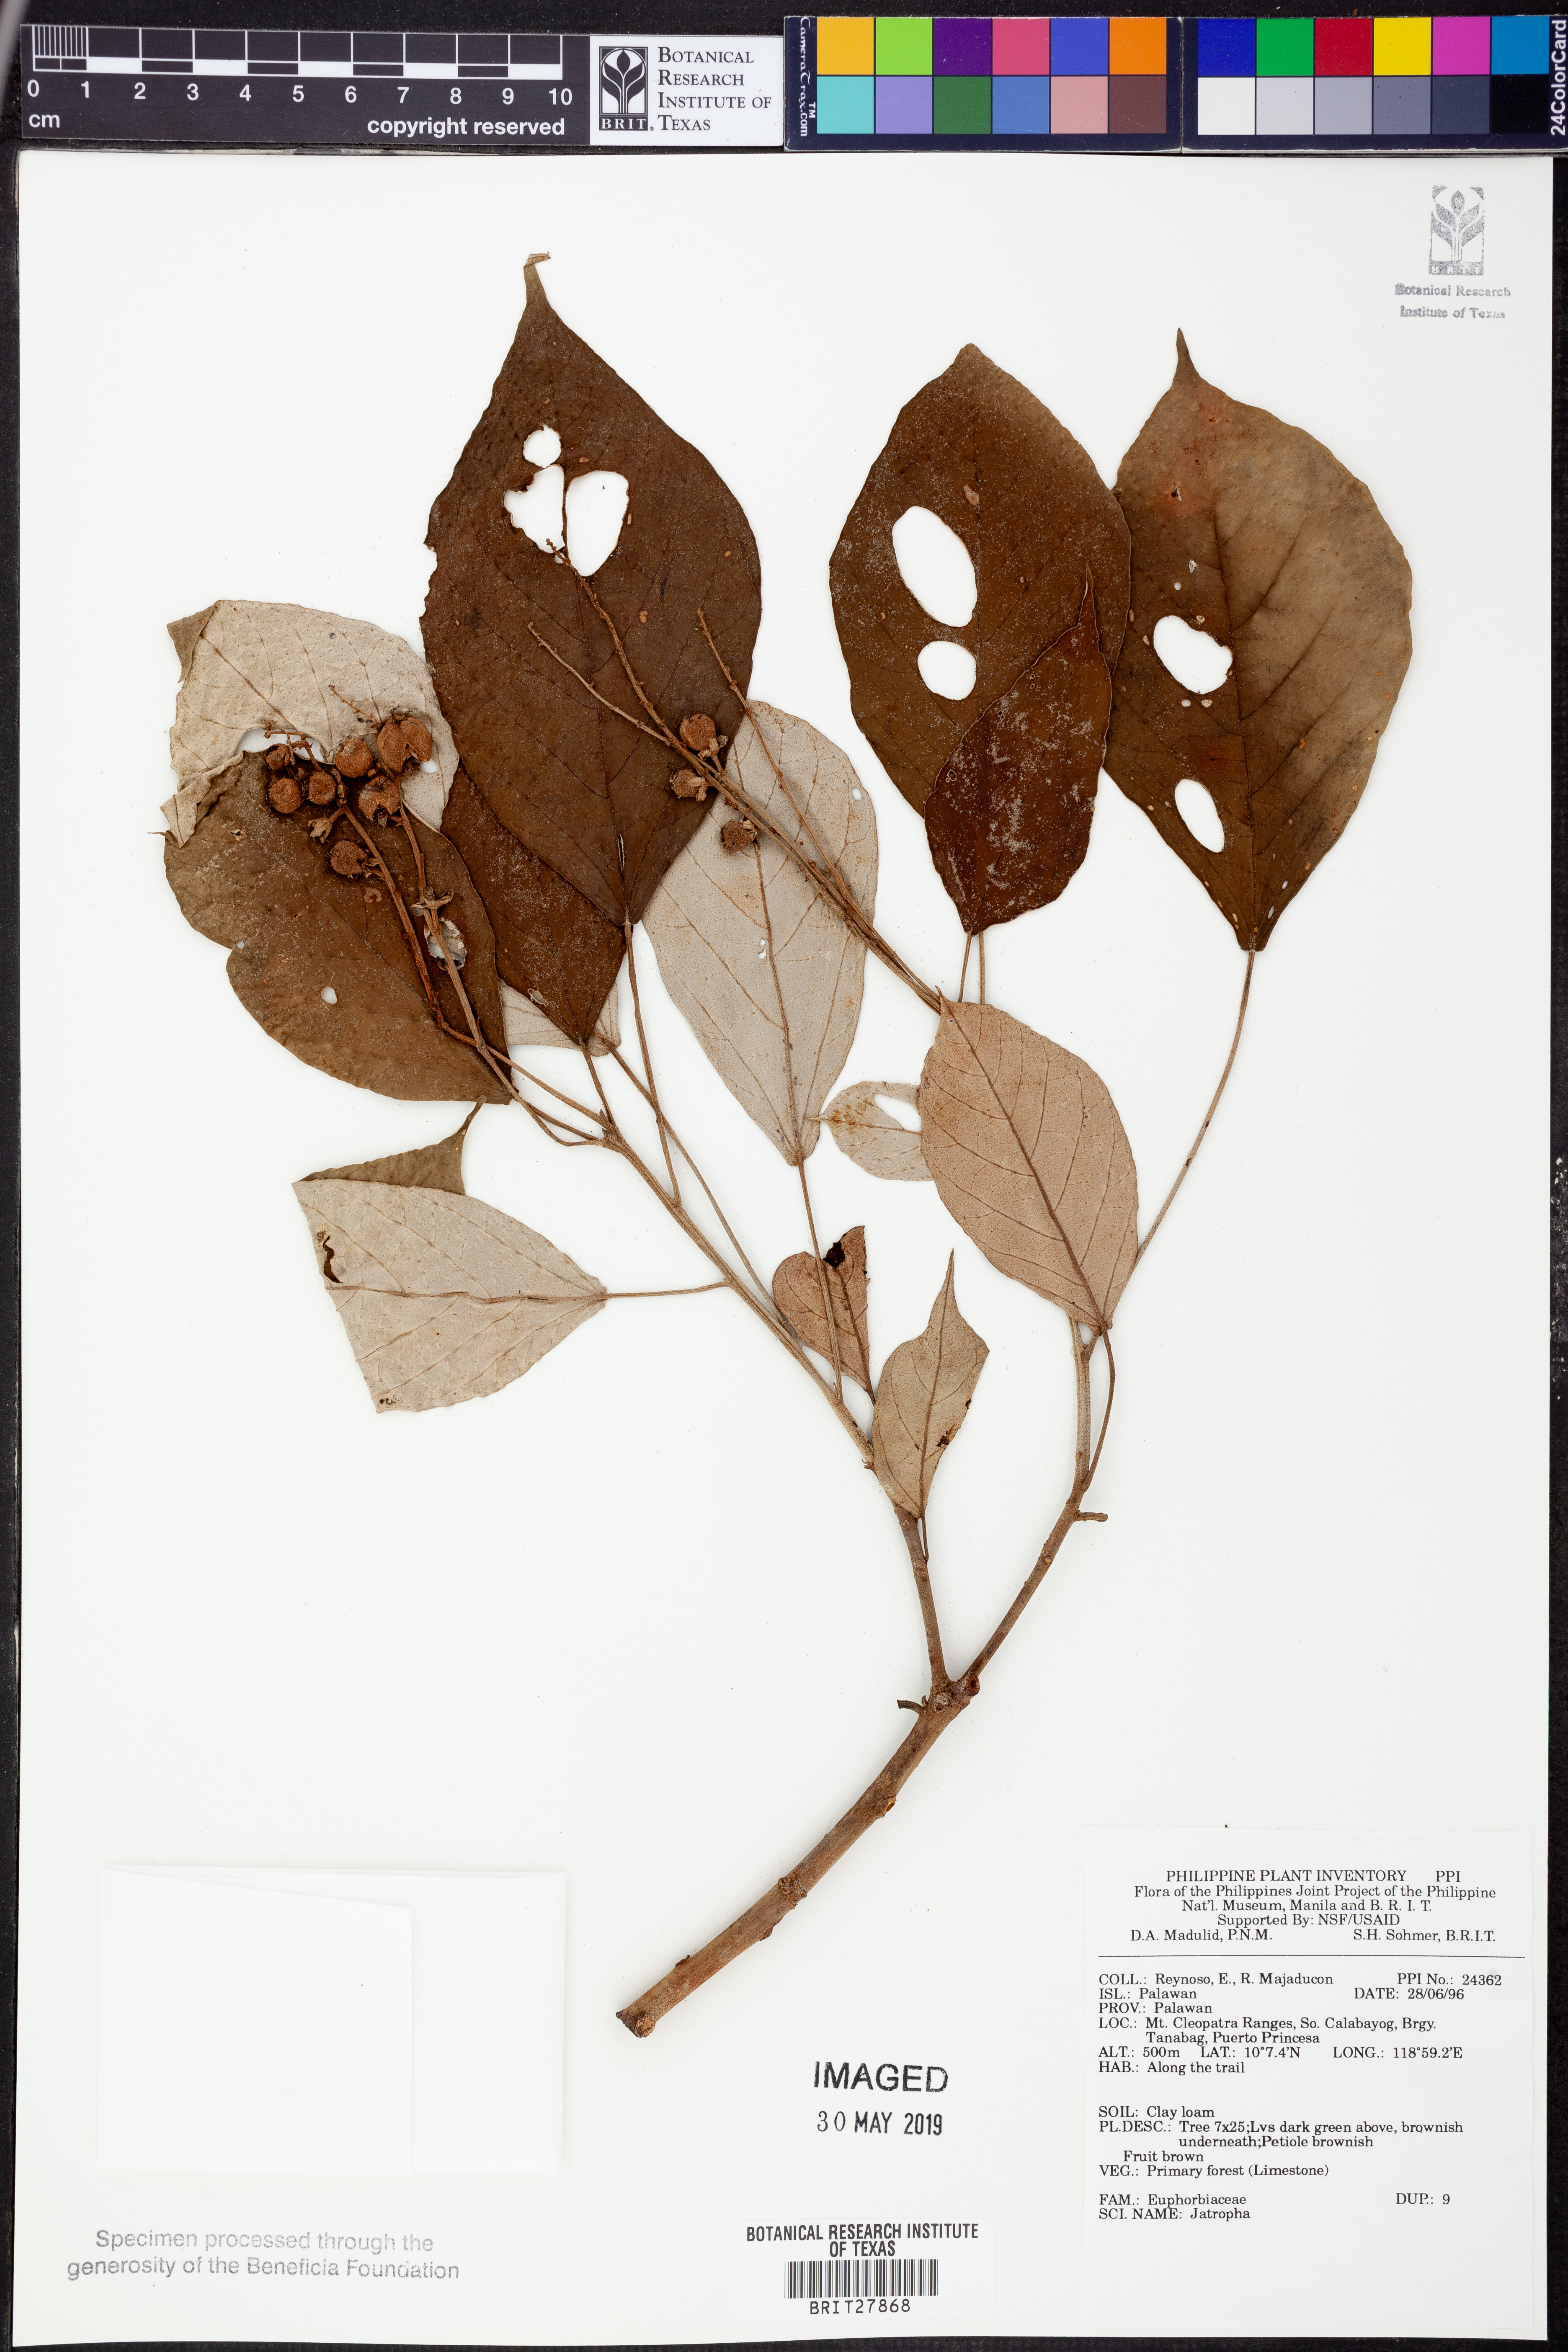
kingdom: Plantae
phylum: Tracheophyta
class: Magnoliopsida
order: Malpighiales
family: Euphorbiaceae
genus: Jatropha
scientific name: Jatropha
